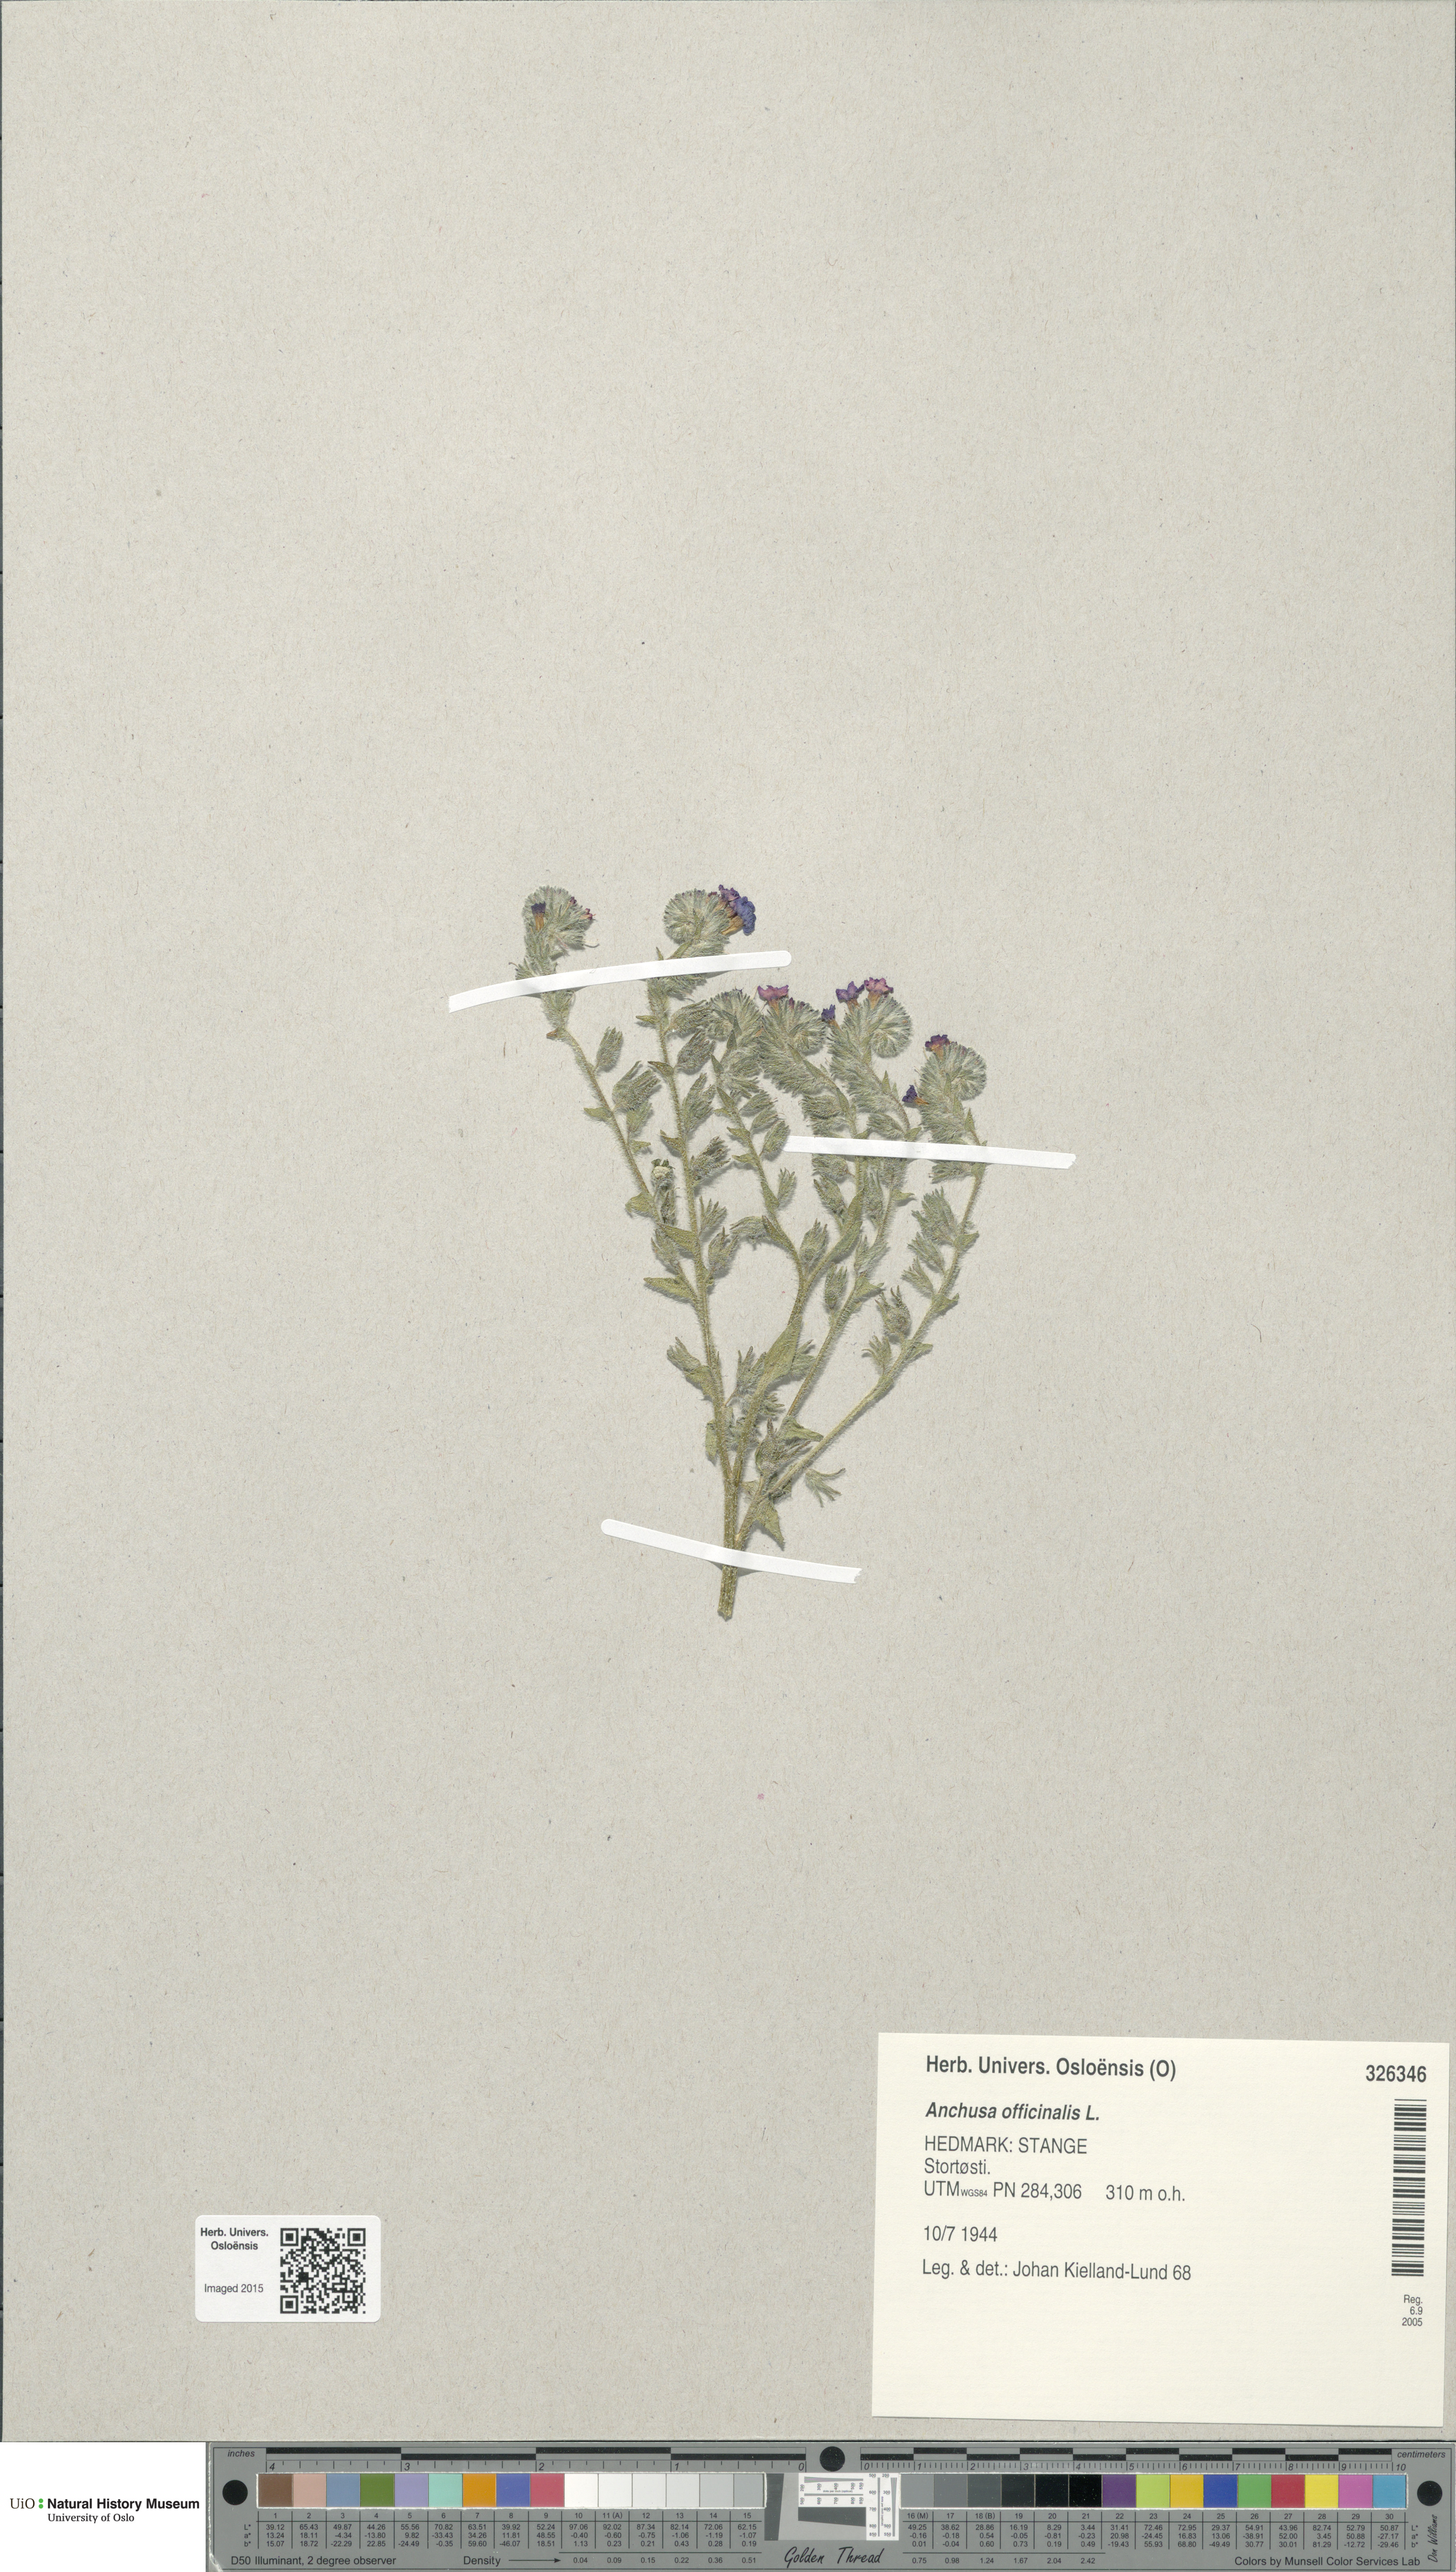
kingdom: Plantae
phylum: Tracheophyta
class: Magnoliopsida
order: Boraginales
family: Boraginaceae
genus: Anchusa
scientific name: Anchusa officinalis
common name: Alkanet
